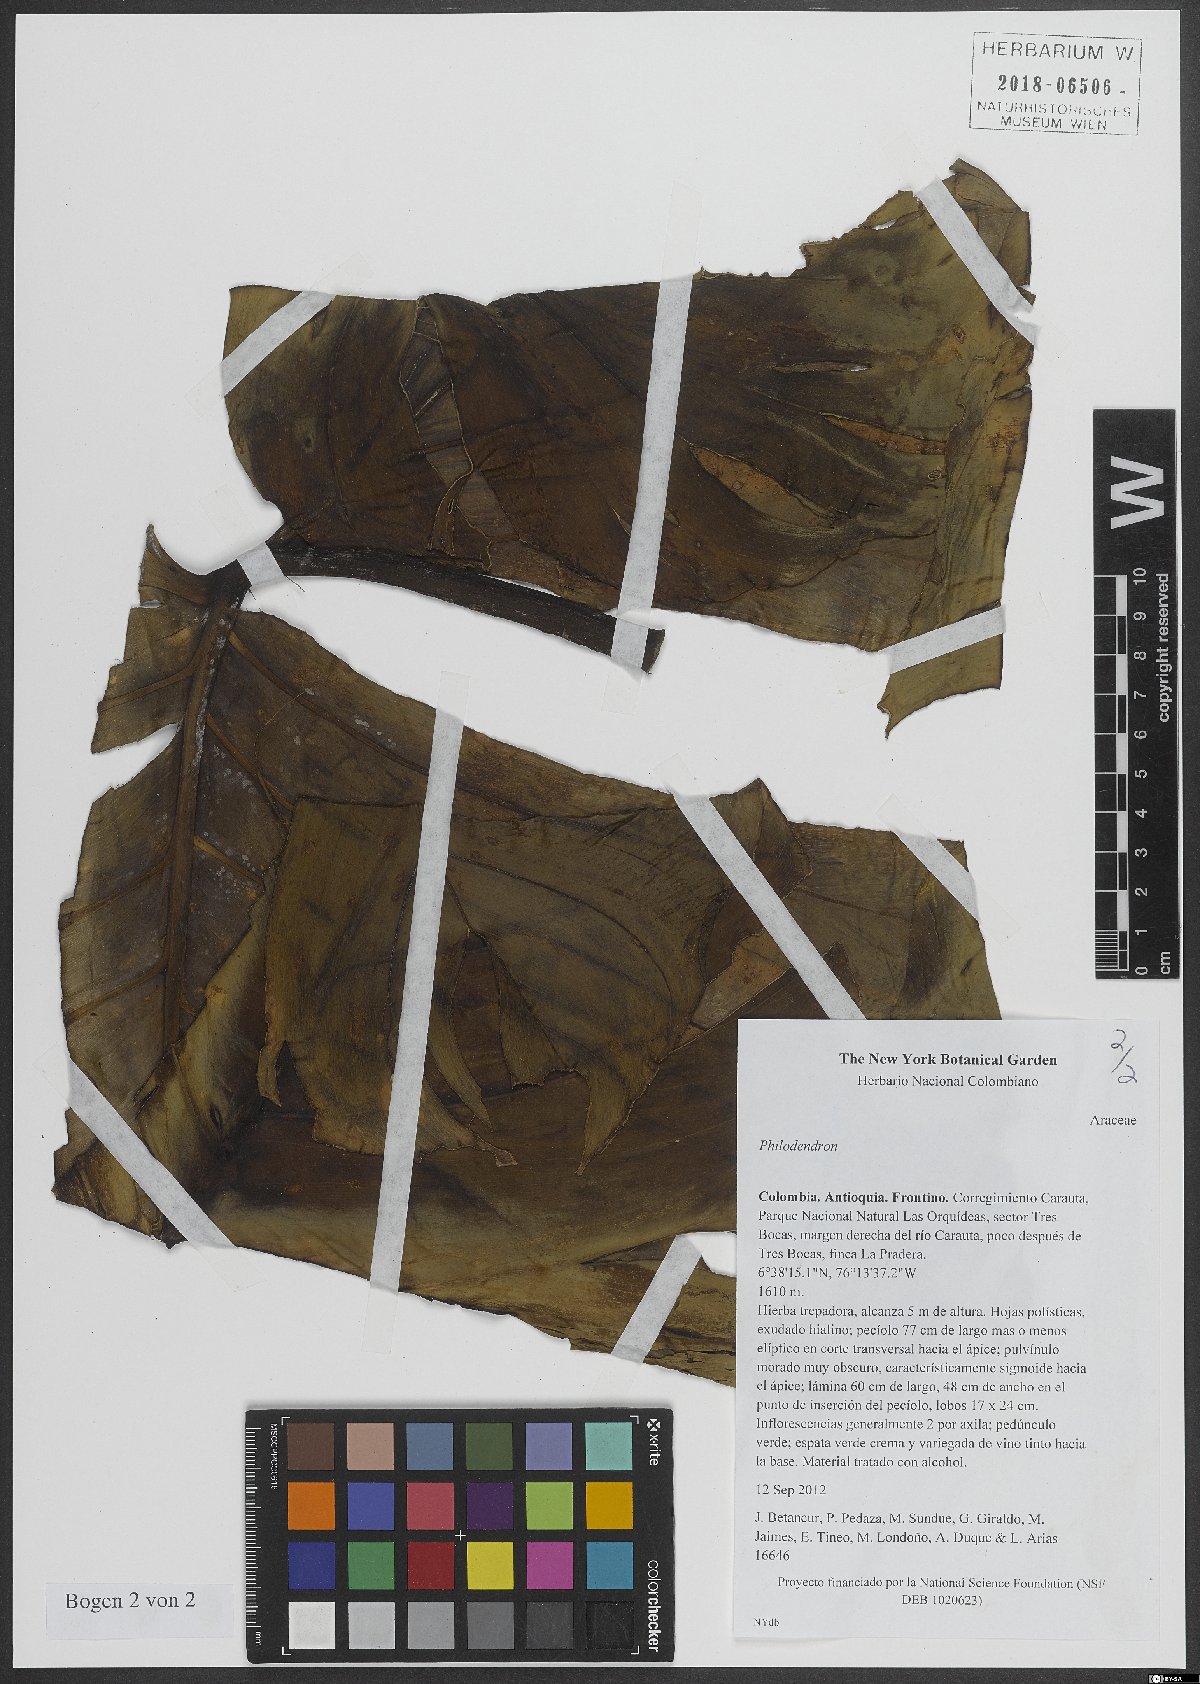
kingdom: Plantae
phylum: Tracheophyta
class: Liliopsida
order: Alismatales
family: Araceae
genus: Philodendron
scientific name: Philodendron
